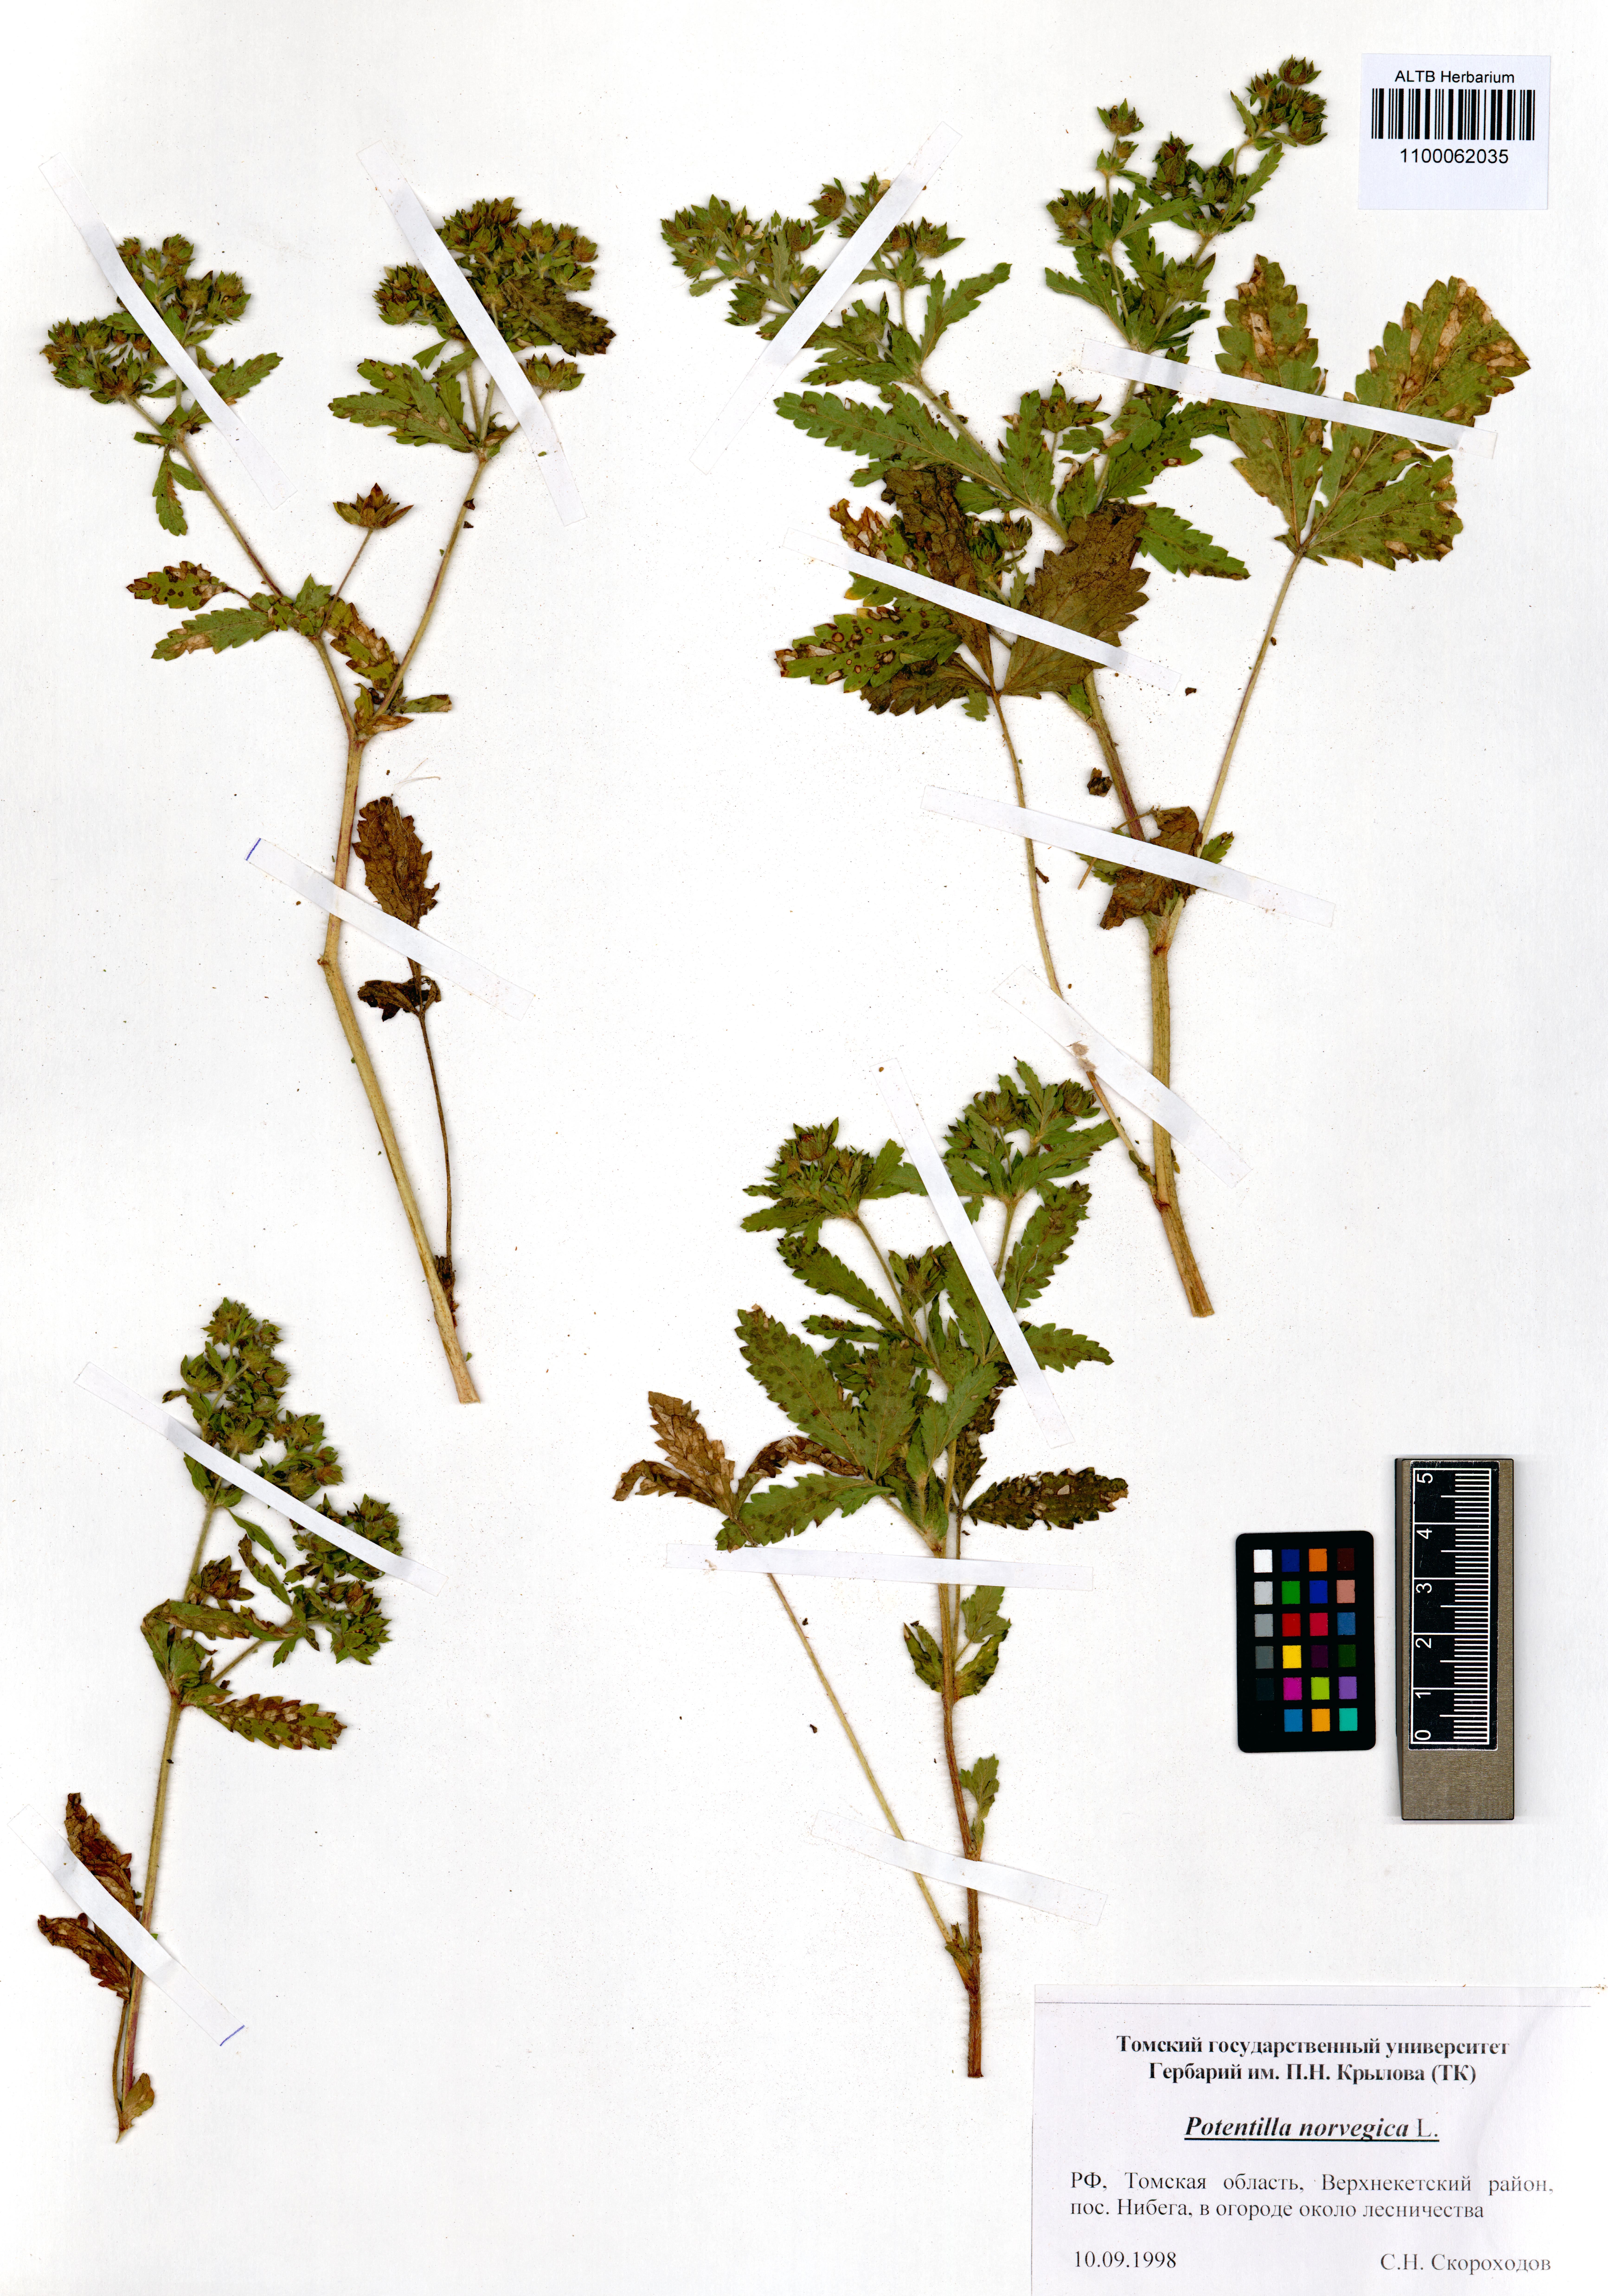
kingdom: Plantae
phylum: Tracheophyta
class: Magnoliopsida
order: Rosales
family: Rosaceae
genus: Potentilla
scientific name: Potentilla norvegica
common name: Ternate-leaved cinquefoil
